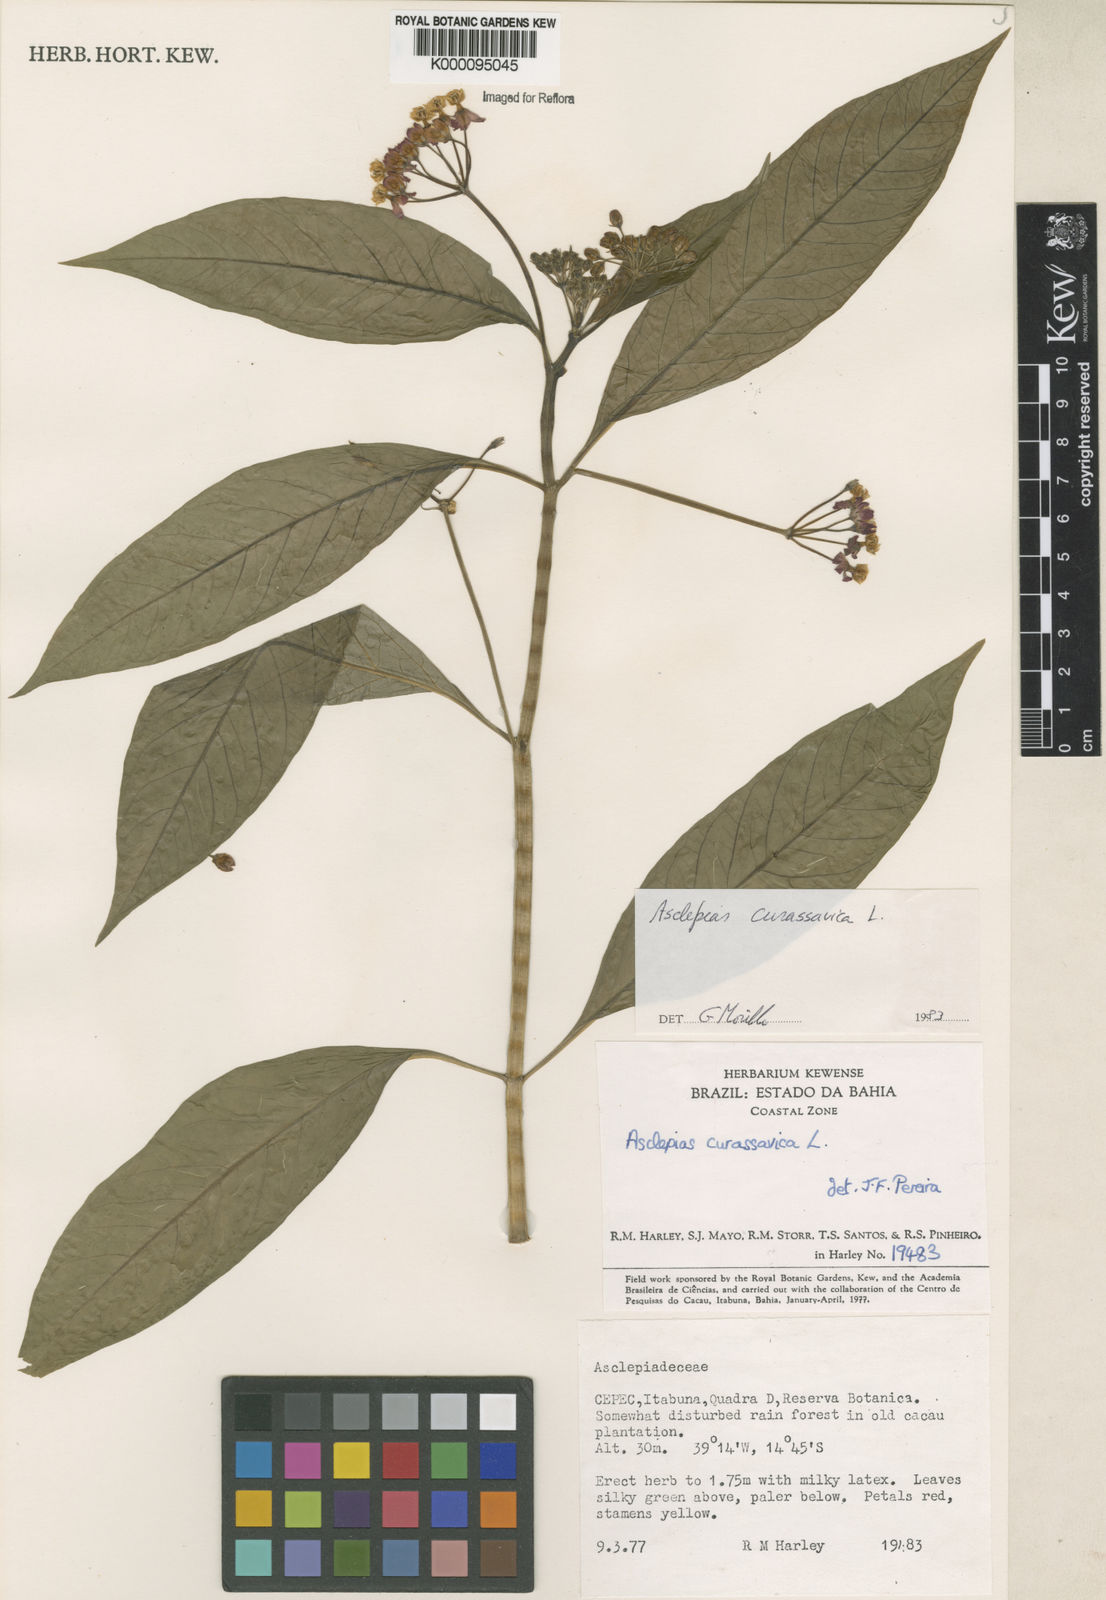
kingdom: Plantae
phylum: Tracheophyta
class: Magnoliopsida
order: Gentianales
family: Apocynaceae
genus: Asclepias
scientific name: Asclepias curassavica
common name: Bloodflower
